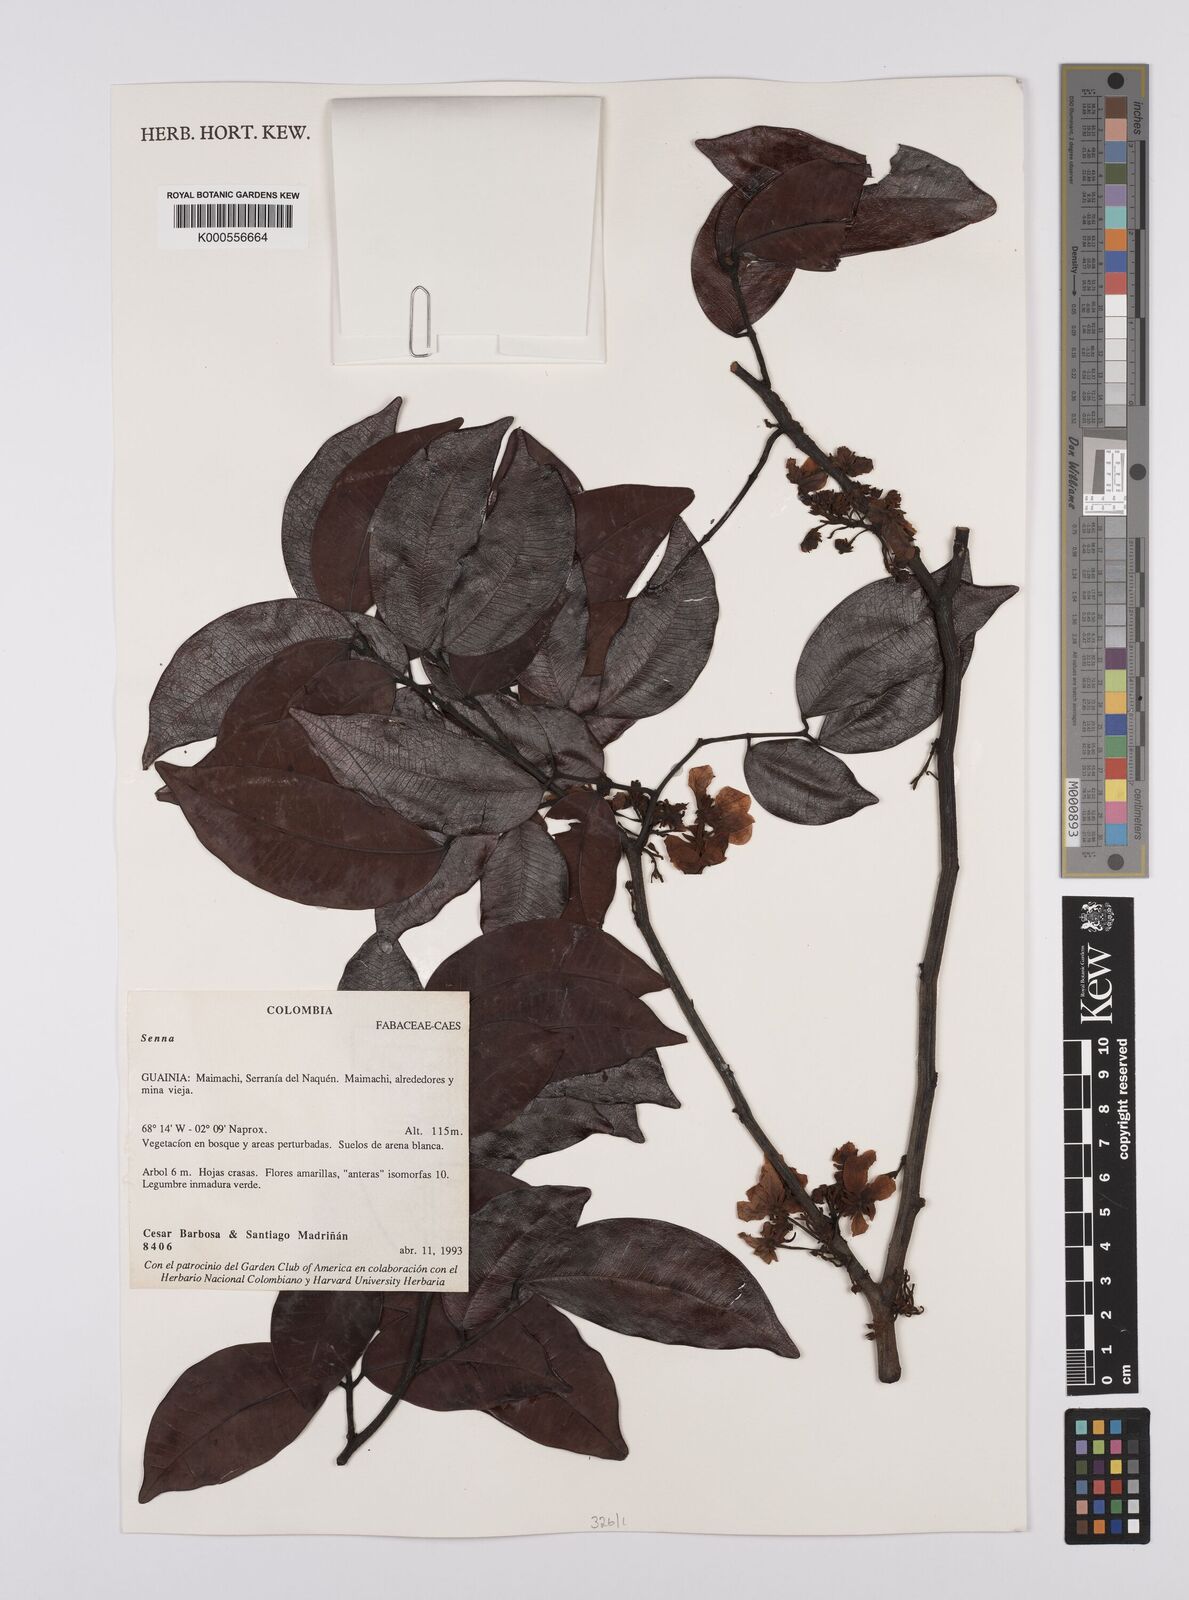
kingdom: Plantae
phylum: Tracheophyta
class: Magnoliopsida
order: Fabales
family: Fabaceae
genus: Senna
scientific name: Senna
